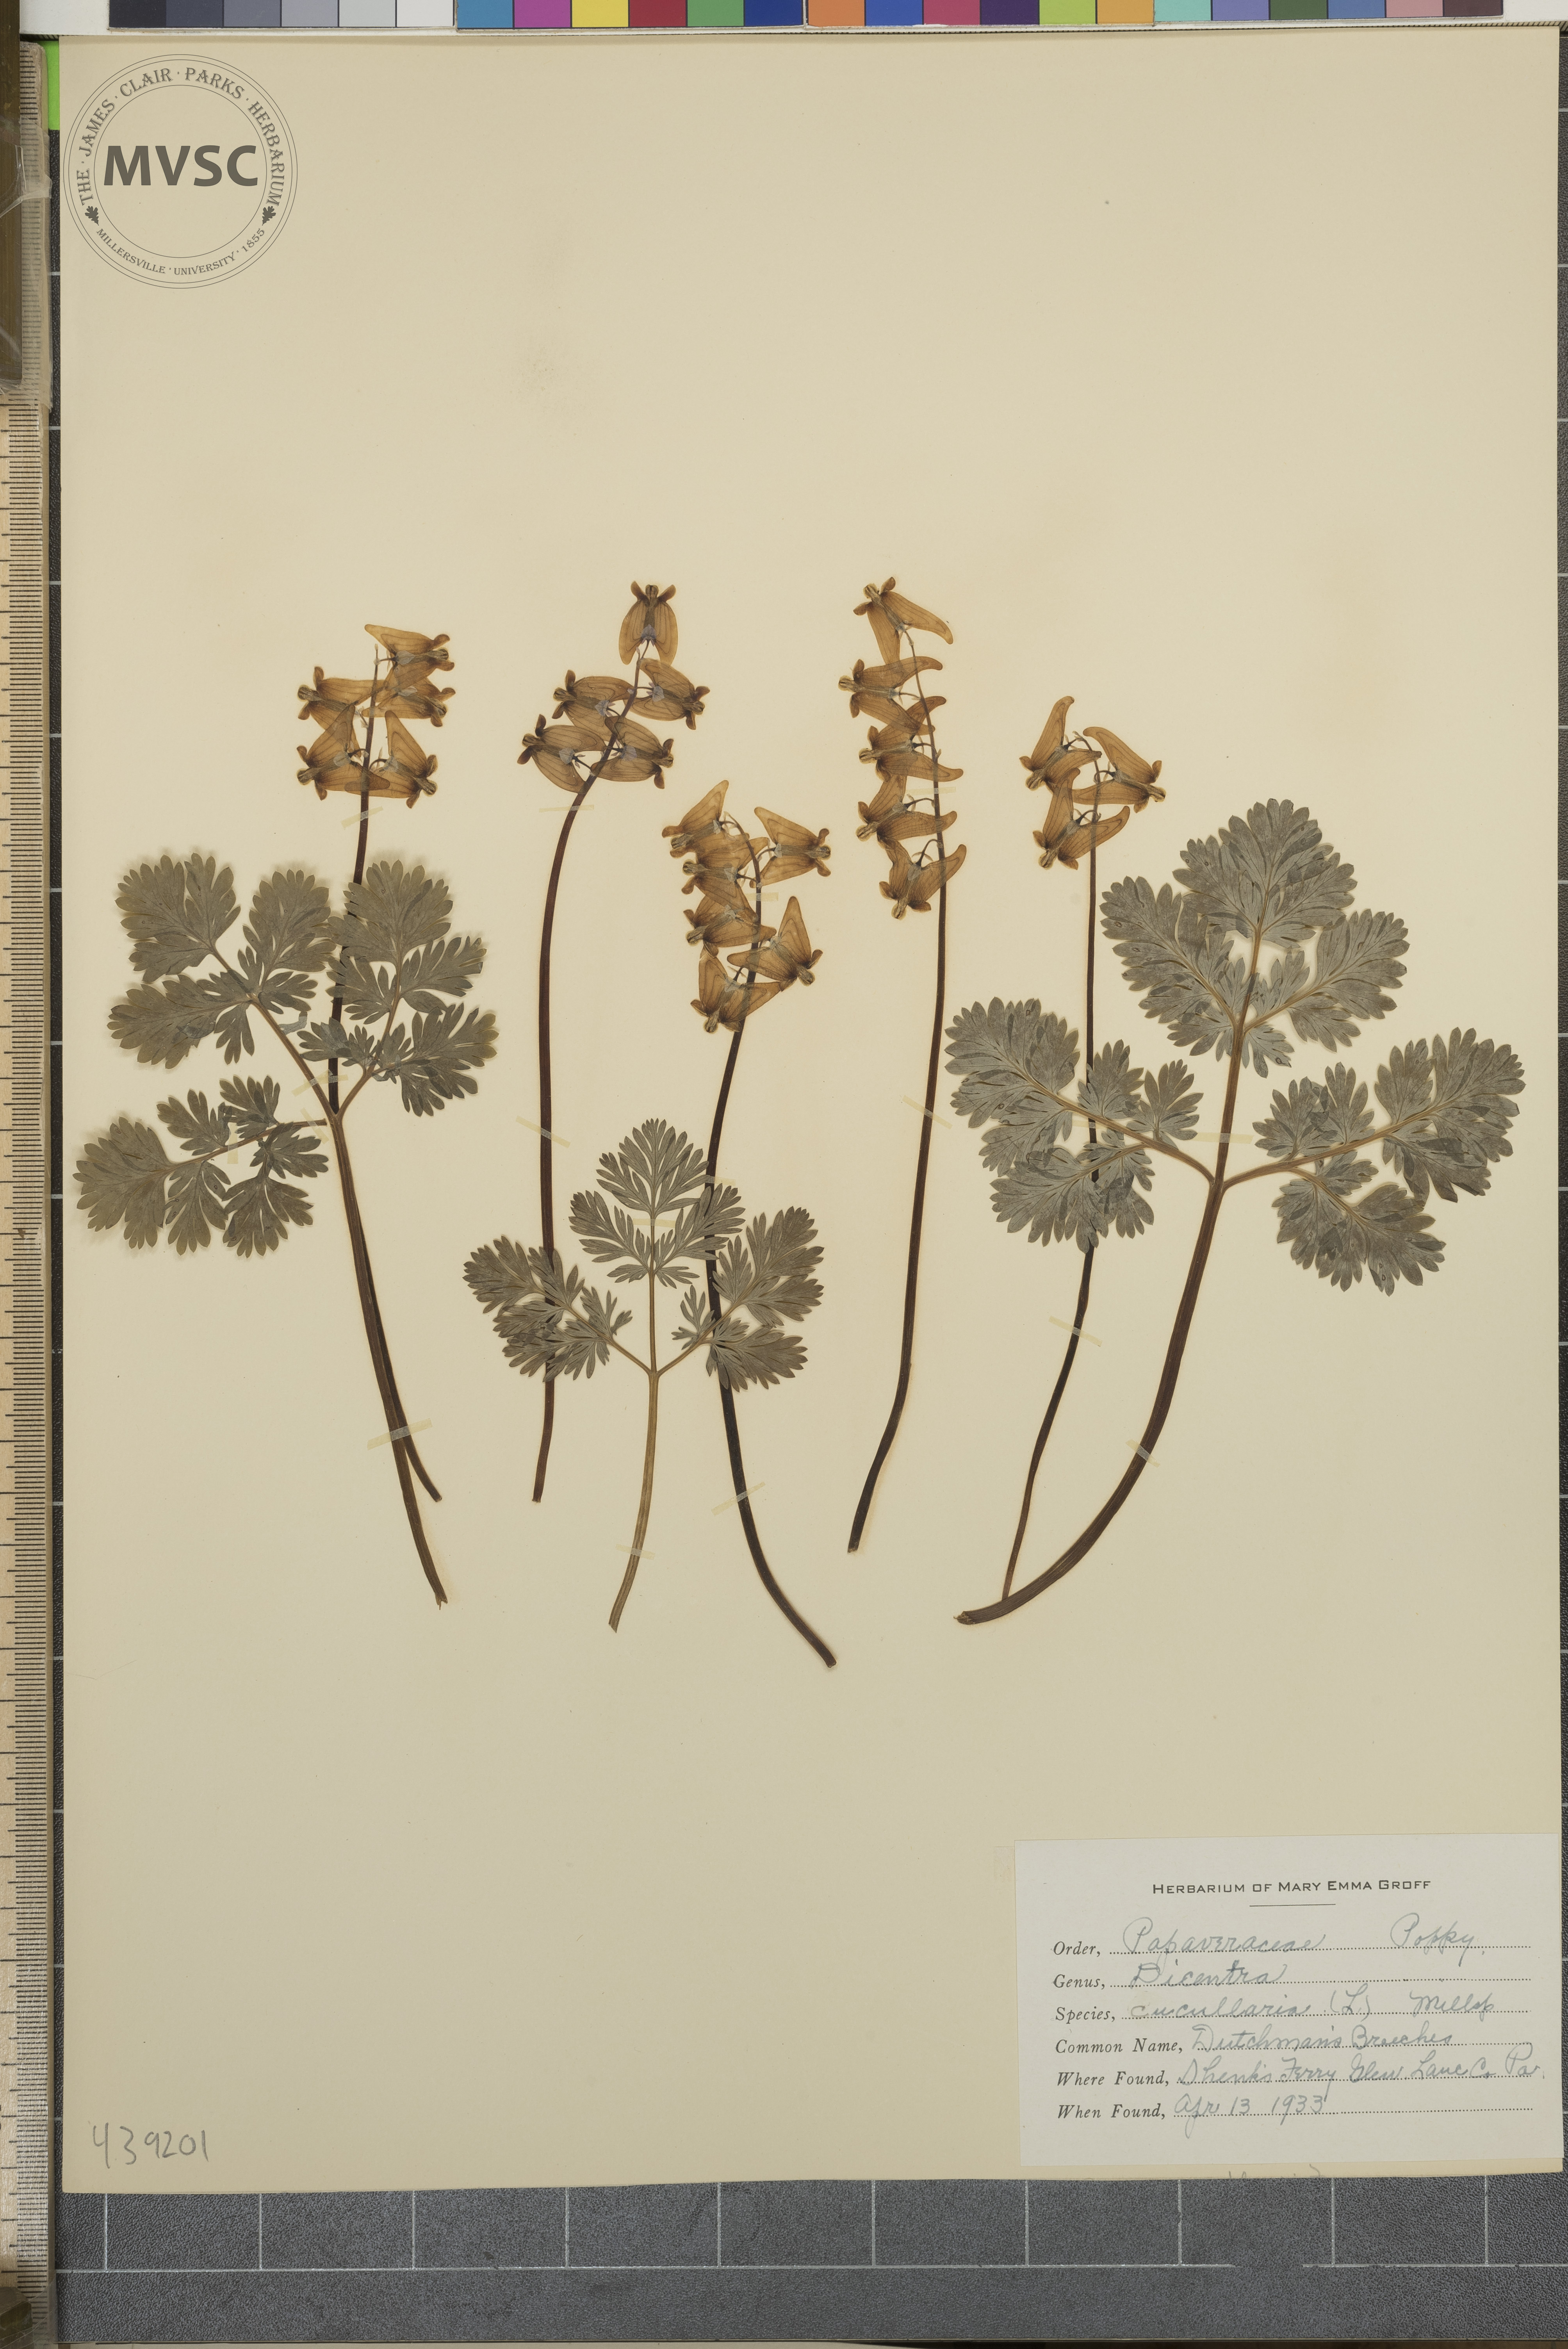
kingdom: Plantae
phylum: Tracheophyta
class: Magnoliopsida
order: Ranunculales
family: Papaveraceae
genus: Dicentra
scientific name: Dicentra cucullaria
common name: Dutchman's breeches
